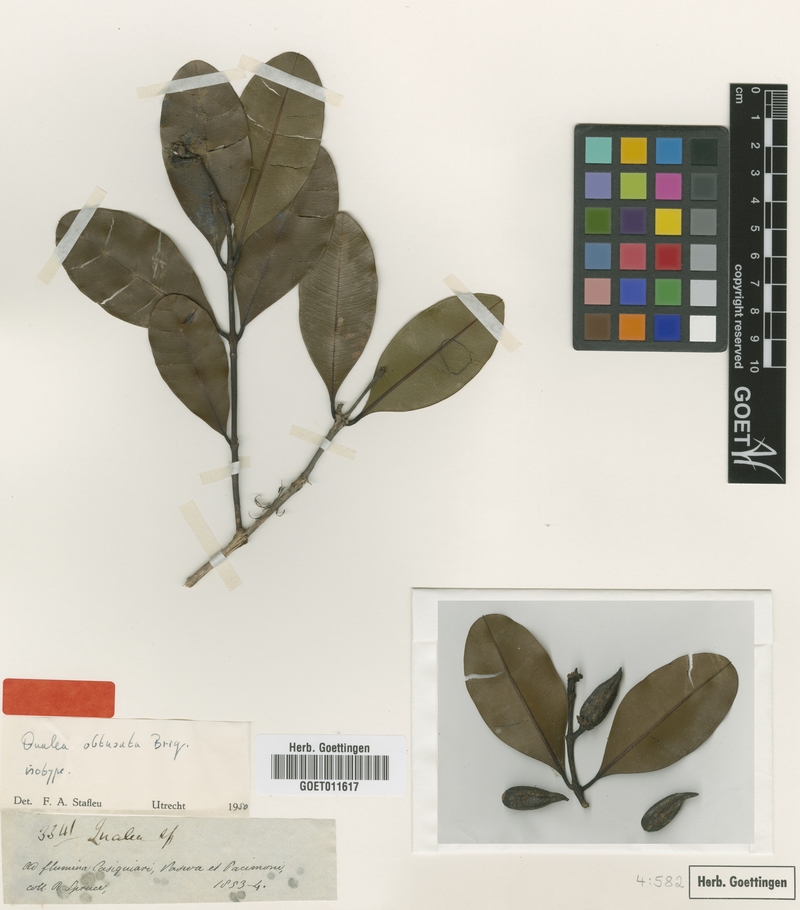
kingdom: Plantae
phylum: Tracheophyta
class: Magnoliopsida
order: Myrtales
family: Vochysiaceae
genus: Ruizterania
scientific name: Ruizterania obtusata
